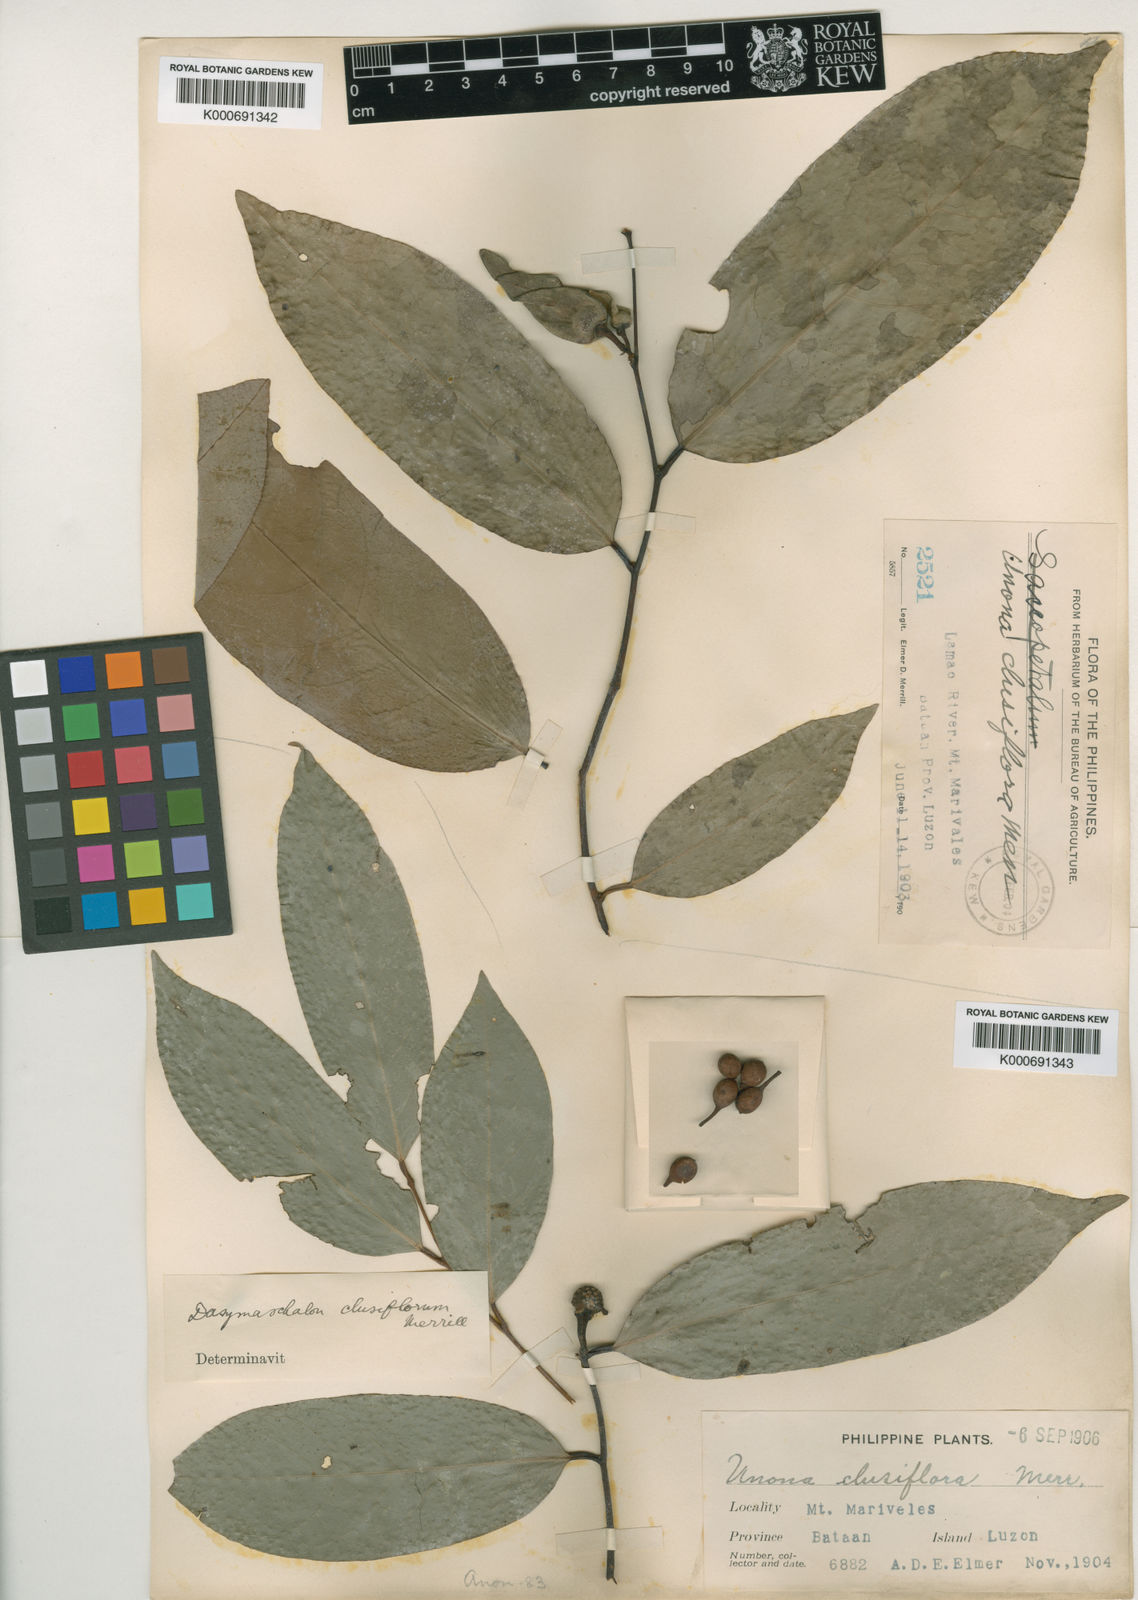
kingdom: Plantae
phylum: Tracheophyta
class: Magnoliopsida
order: Magnoliales
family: Annonaceae
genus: Dasymaschalon
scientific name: Dasymaschalon clusiflorum
